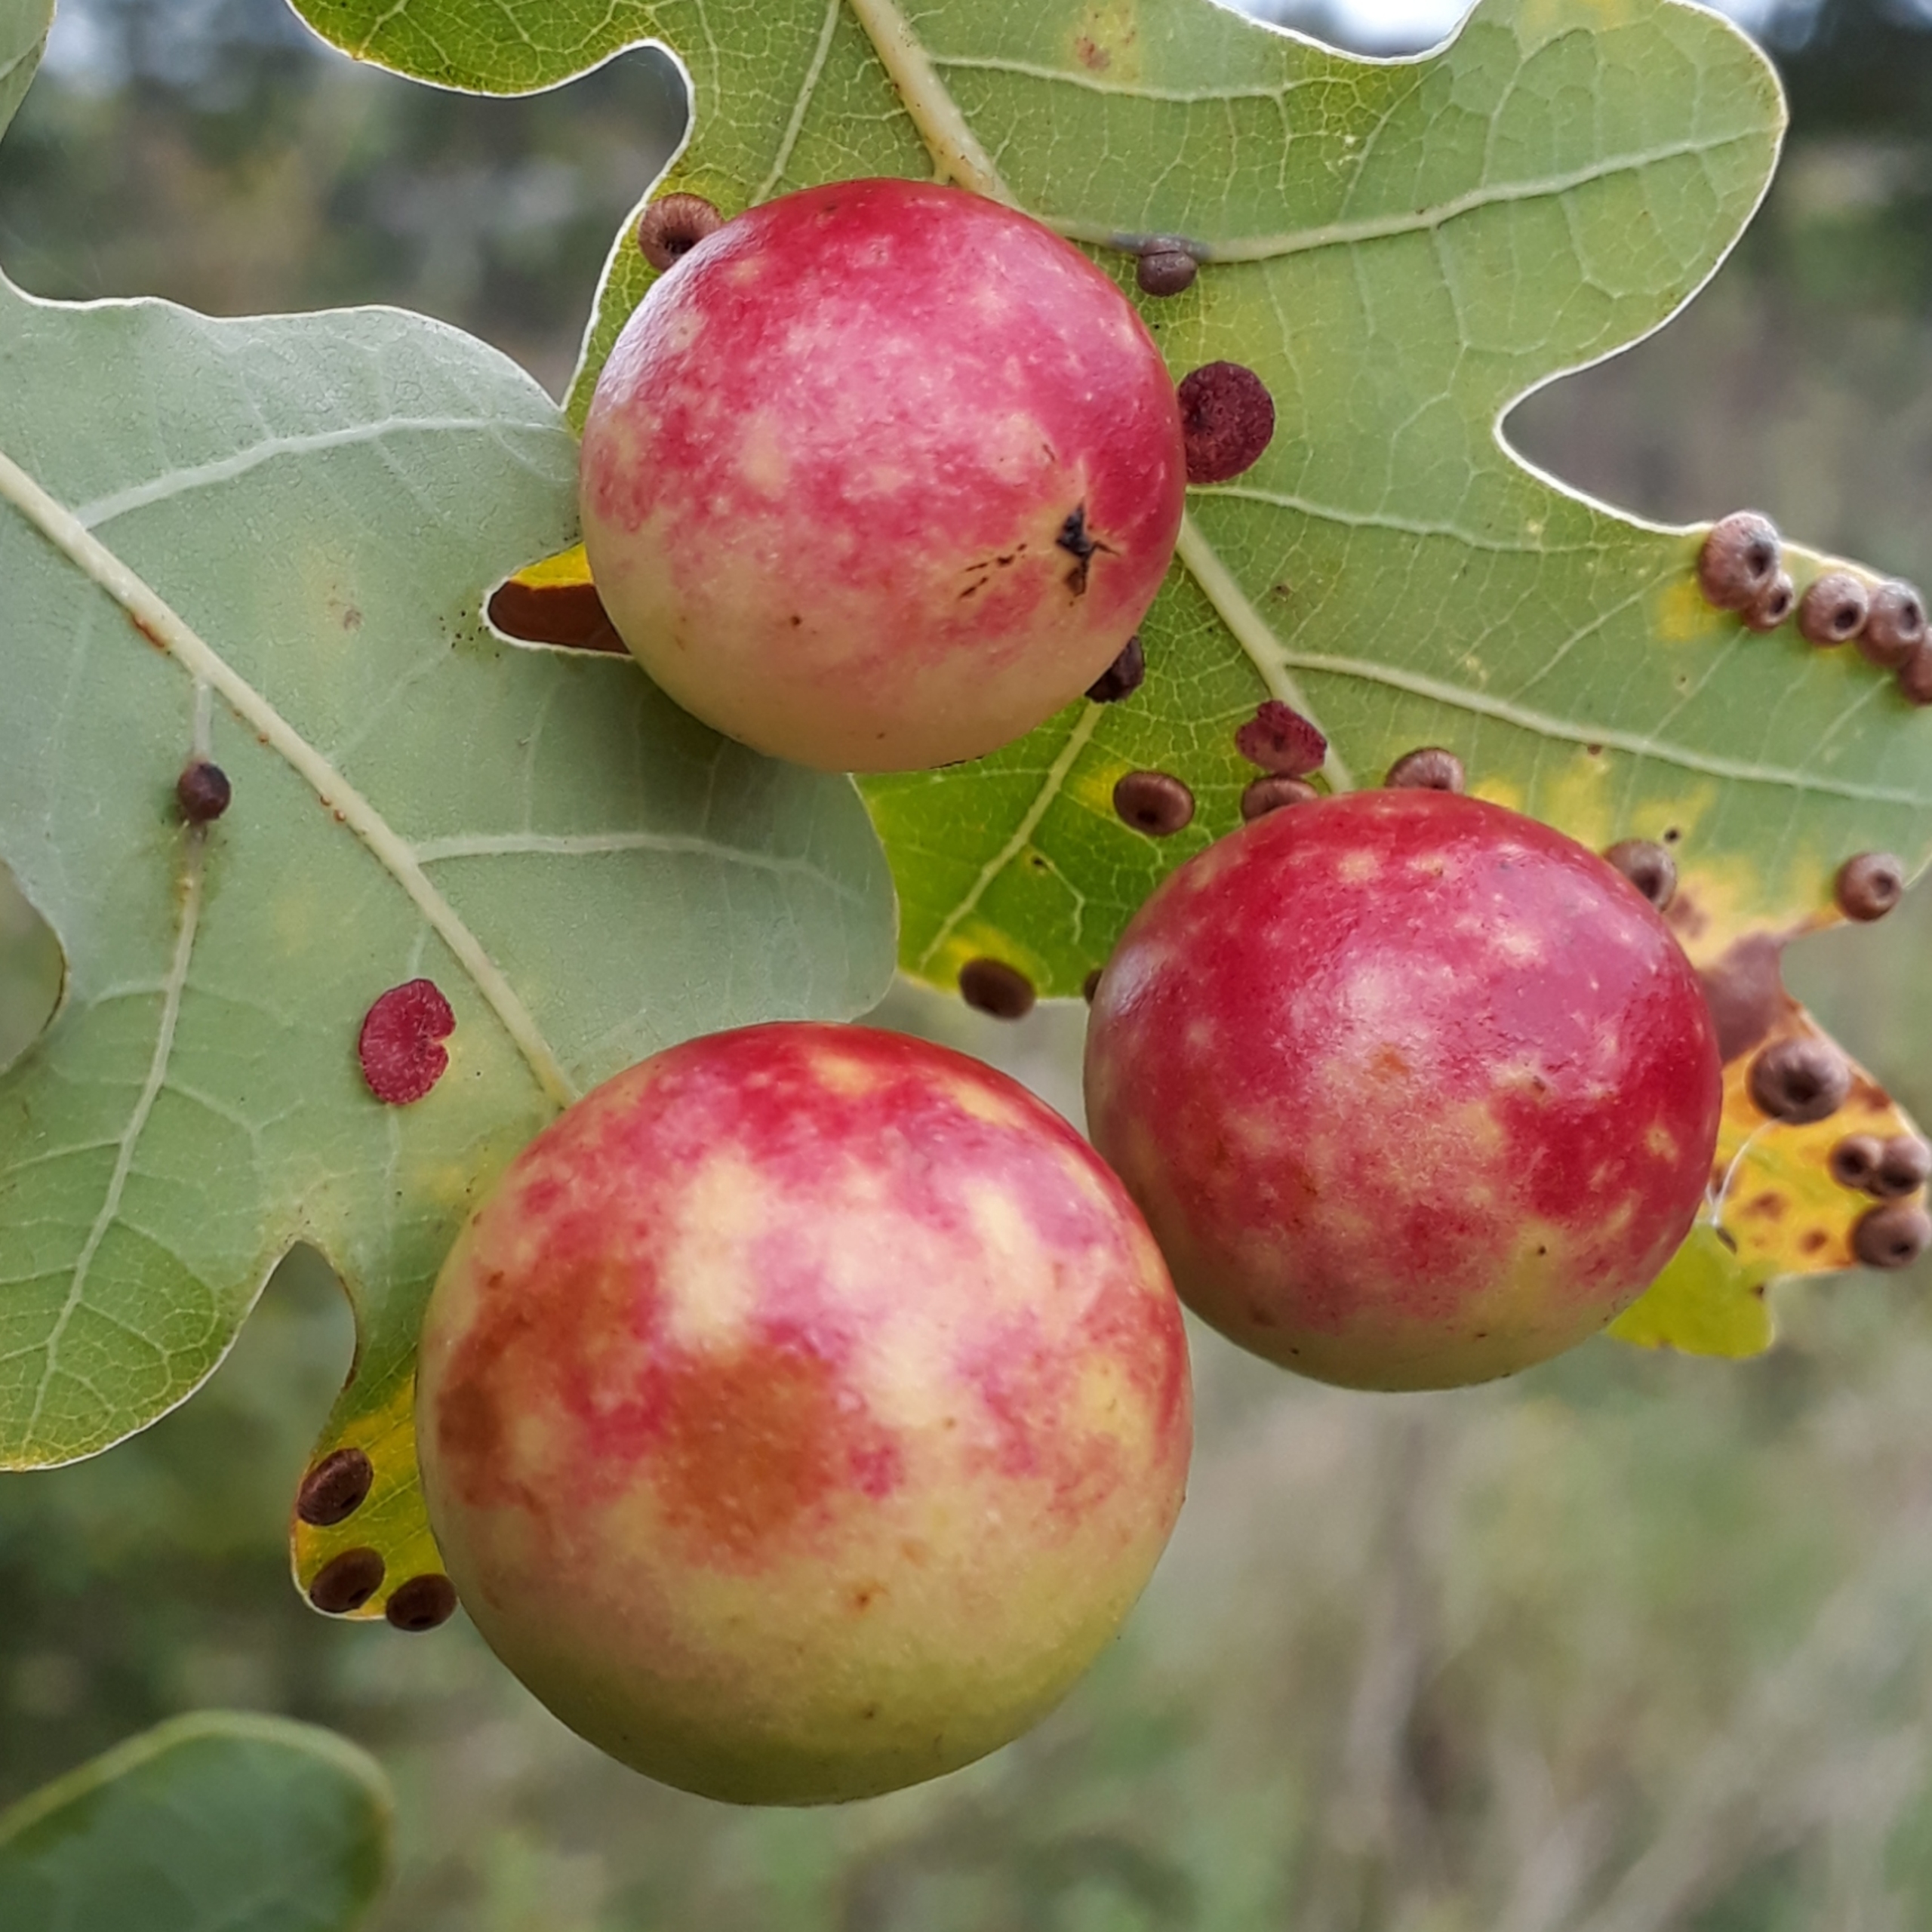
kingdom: Animalia
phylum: Arthropoda
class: Insecta
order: Hymenoptera
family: Cynipidae
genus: Cynips
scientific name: Cynips quercusfolii
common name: Stor galæblehveps
